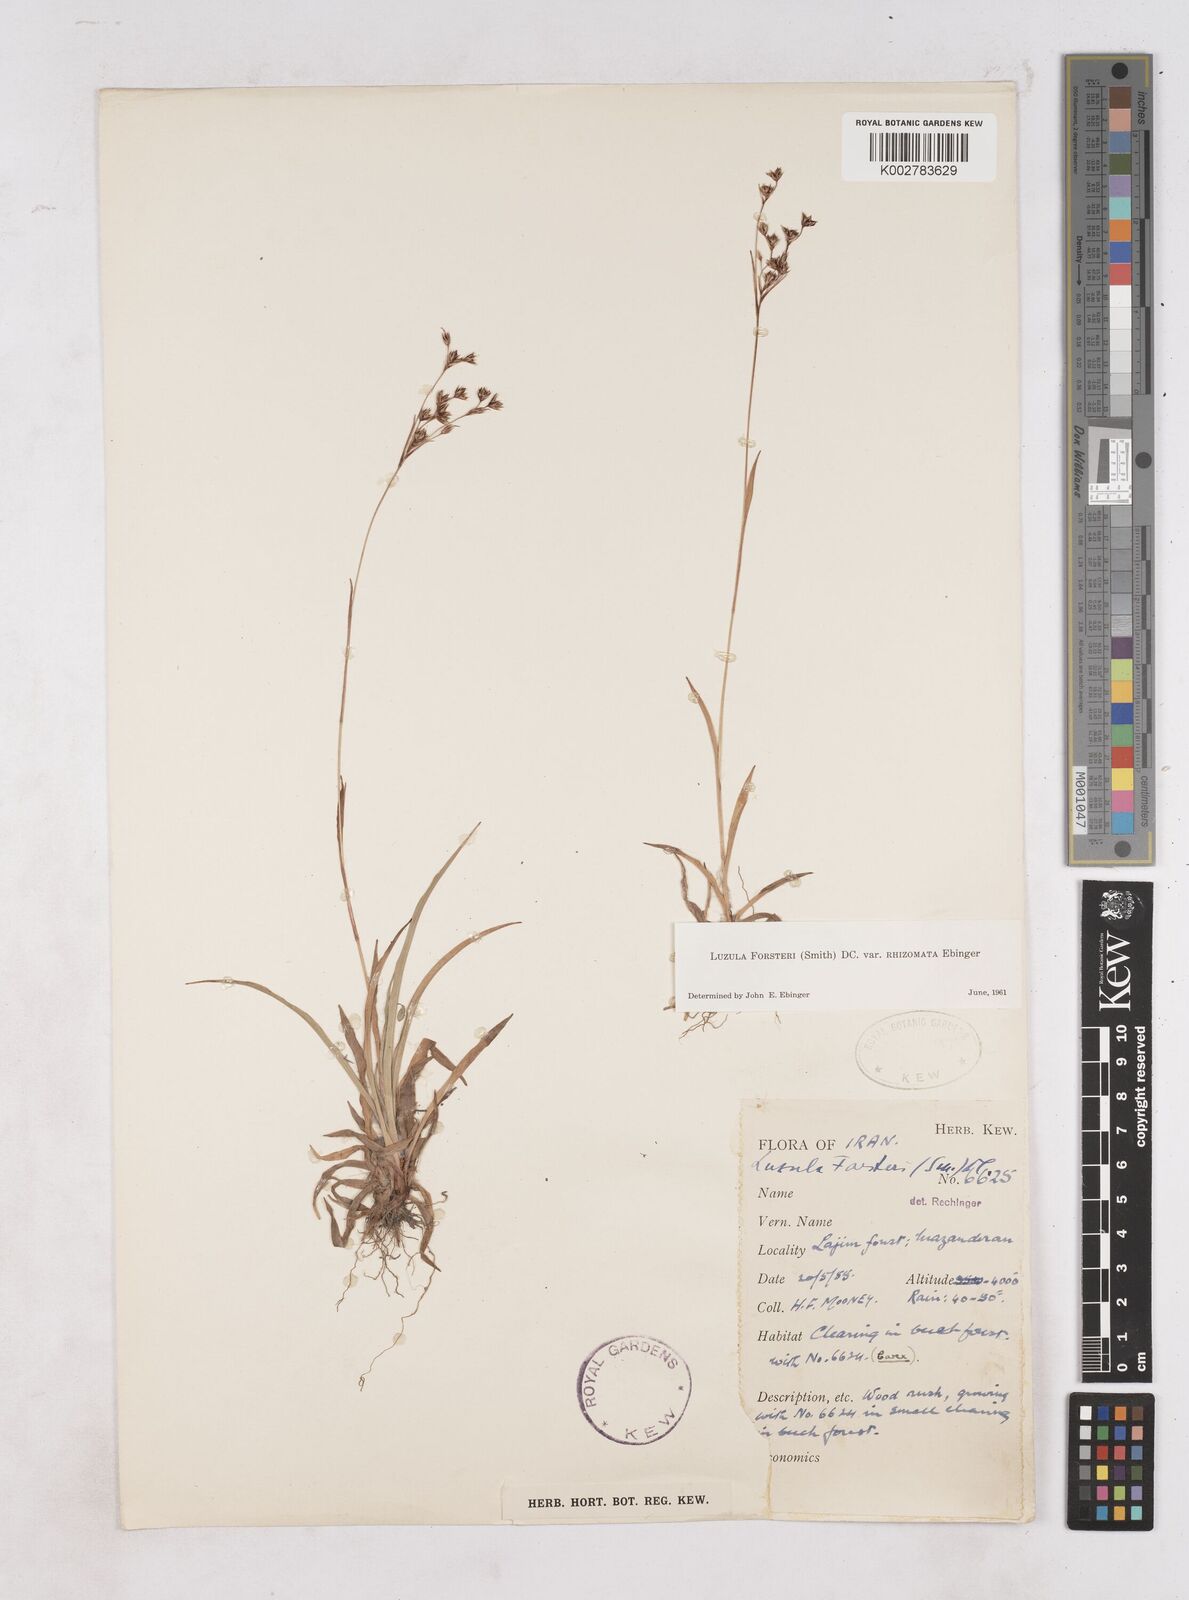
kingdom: Plantae
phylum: Tracheophyta
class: Liliopsida
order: Poales
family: Juncaceae
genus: Luzula
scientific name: Luzula forsteri
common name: Southern wood-rush
